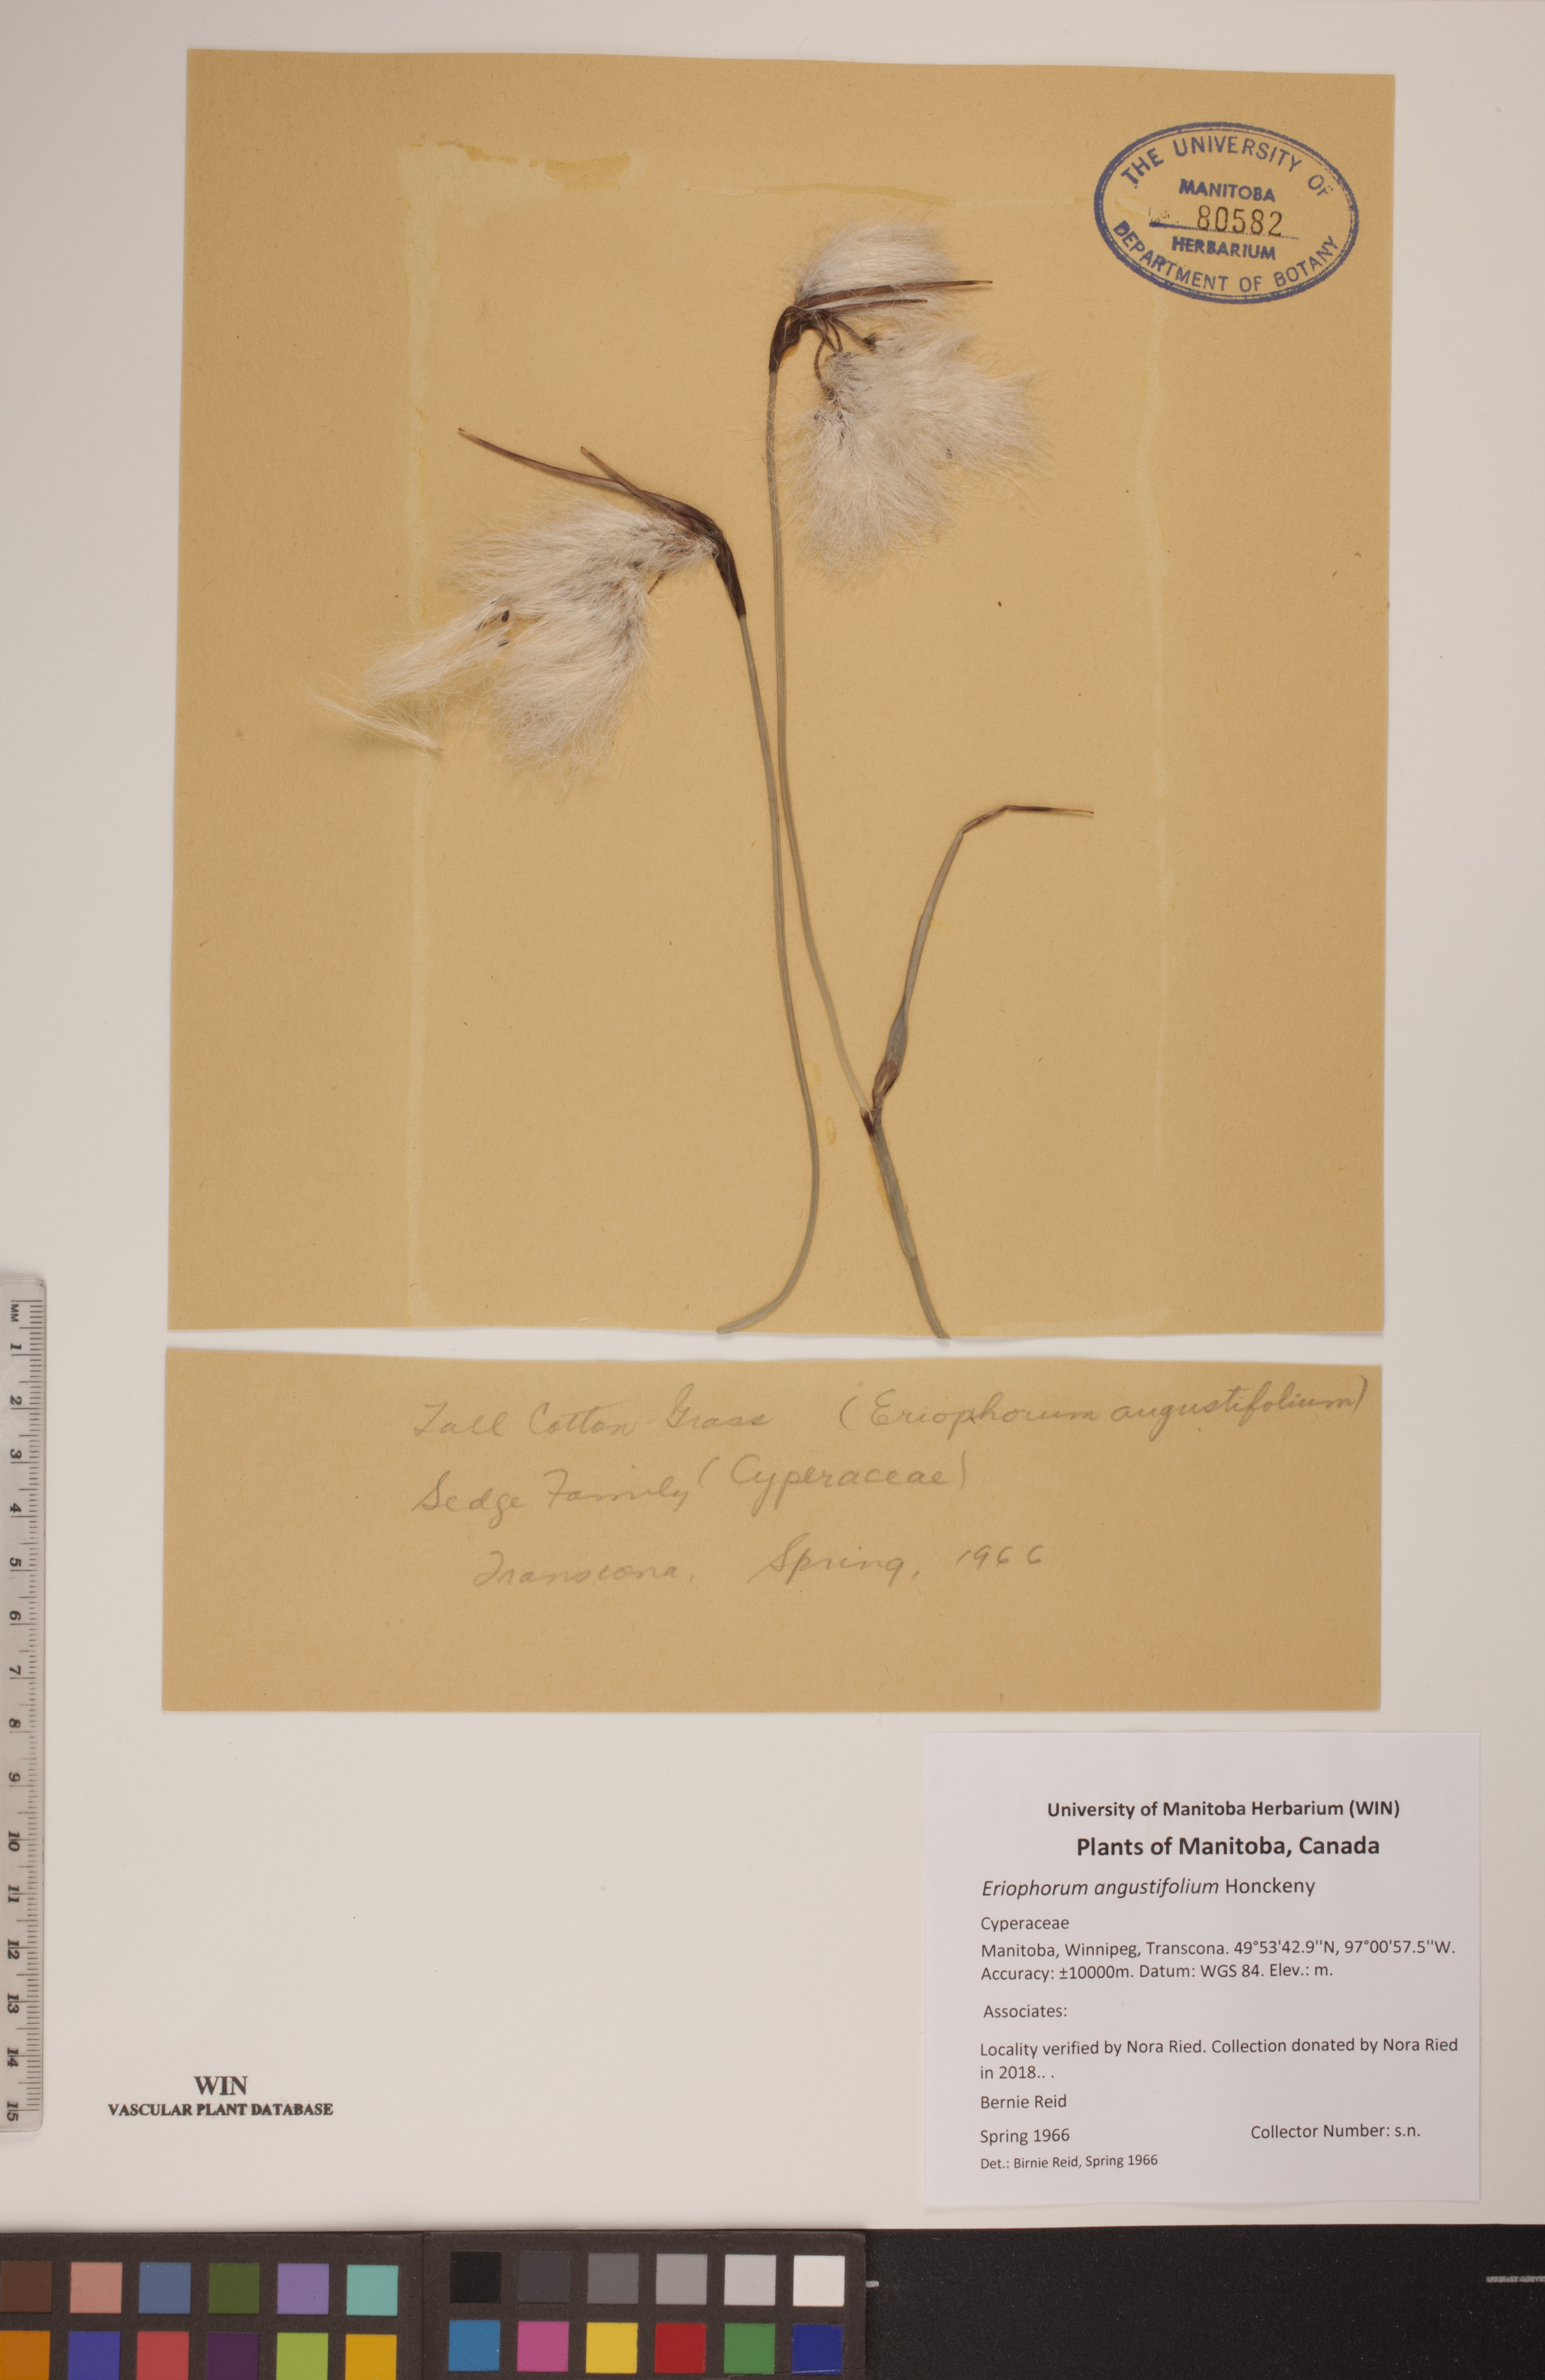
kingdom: Plantae
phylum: Tracheophyta
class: Liliopsida
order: Poales
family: Cyperaceae
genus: Eriophorum
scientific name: Eriophorum angustifolium
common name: Common cottongrass
